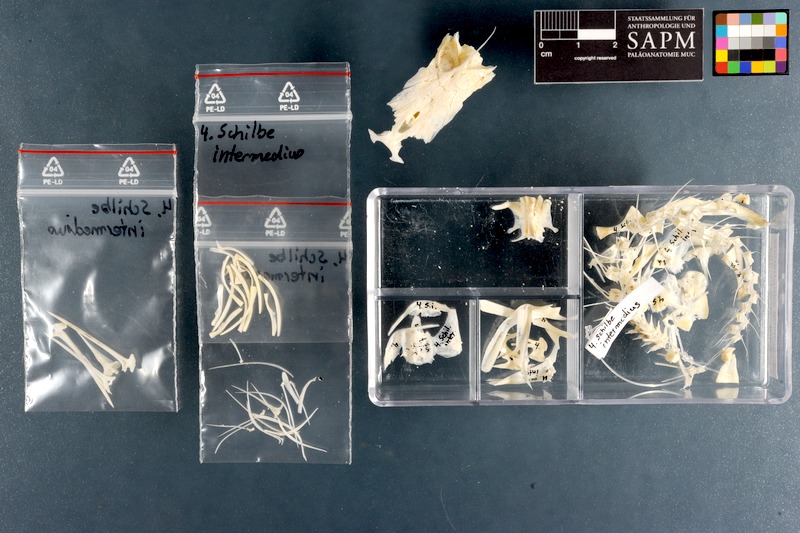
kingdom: Animalia
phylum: Chordata
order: Siluriformes
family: Schilbeidae
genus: Schilbe
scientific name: Schilbe intermedius
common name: Silver catfish
